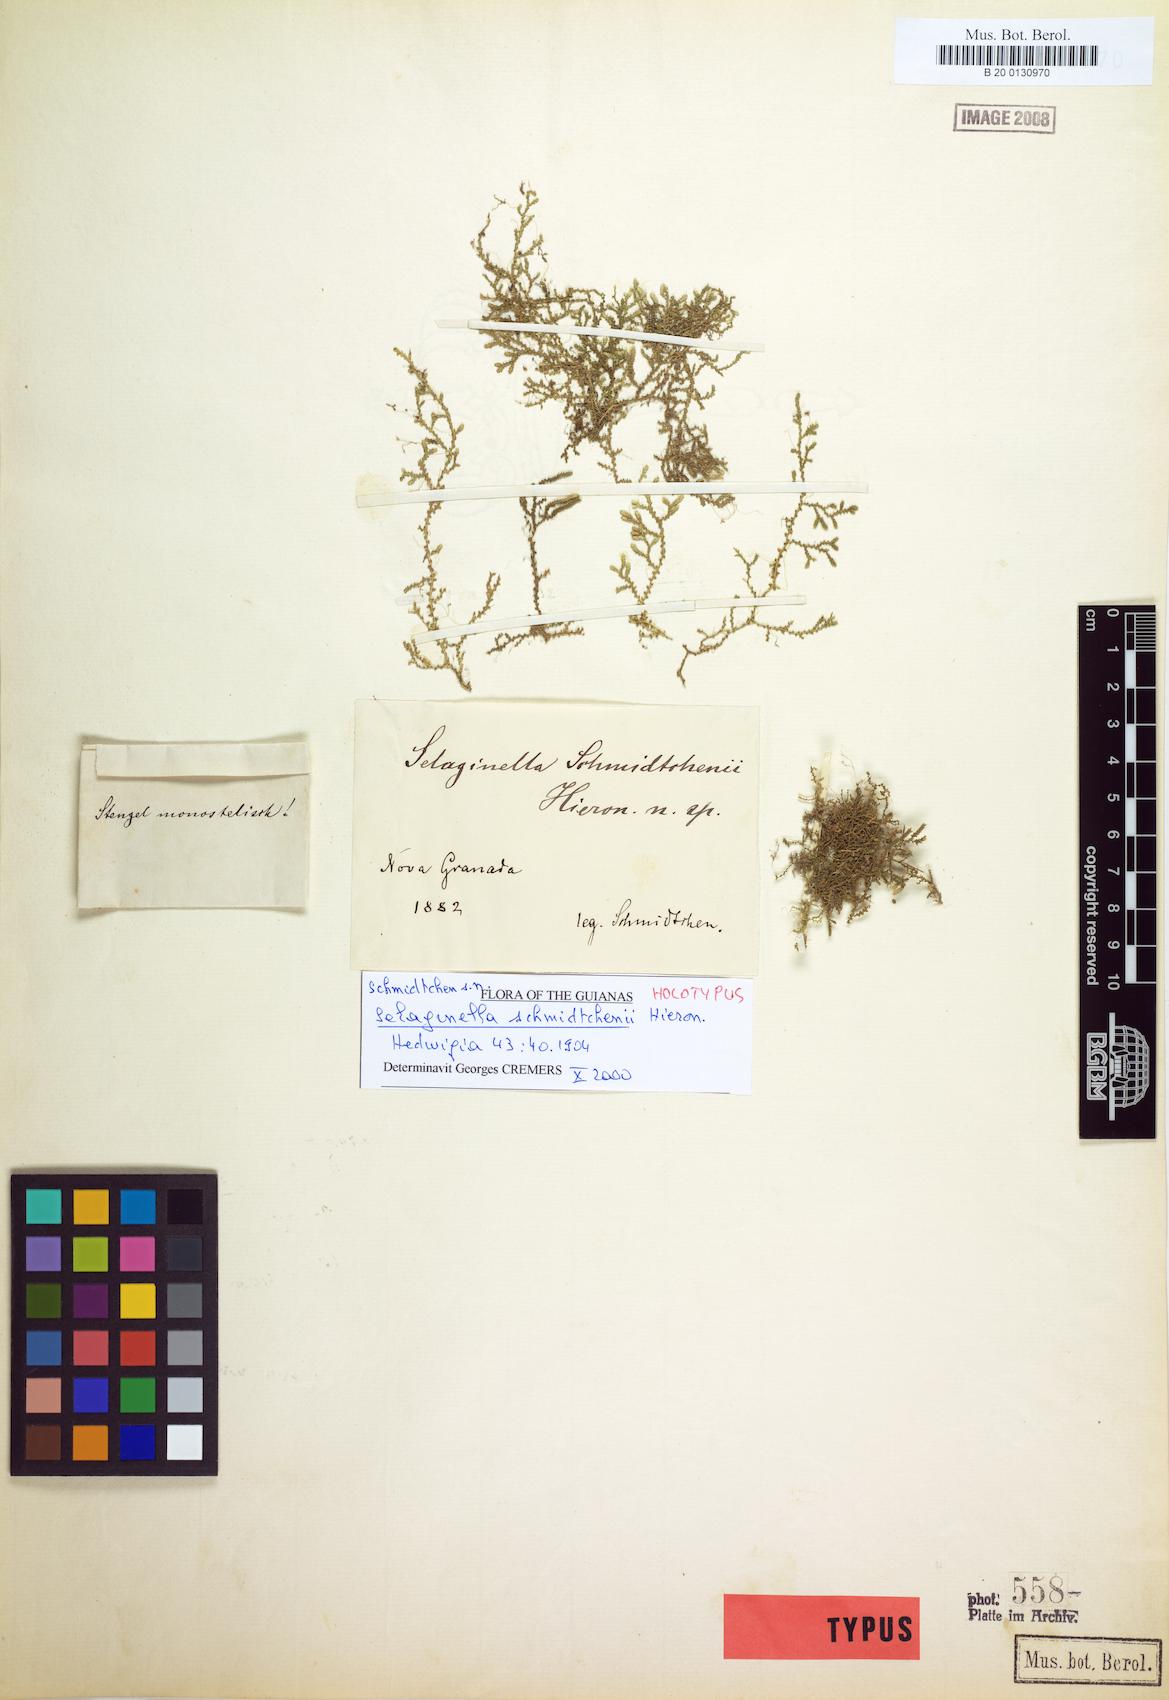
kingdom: Plantae
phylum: Tracheophyta
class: Lycopodiopsida
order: Selaginellales
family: Selaginellaceae
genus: Selaginella
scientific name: Selaginella microphylla
